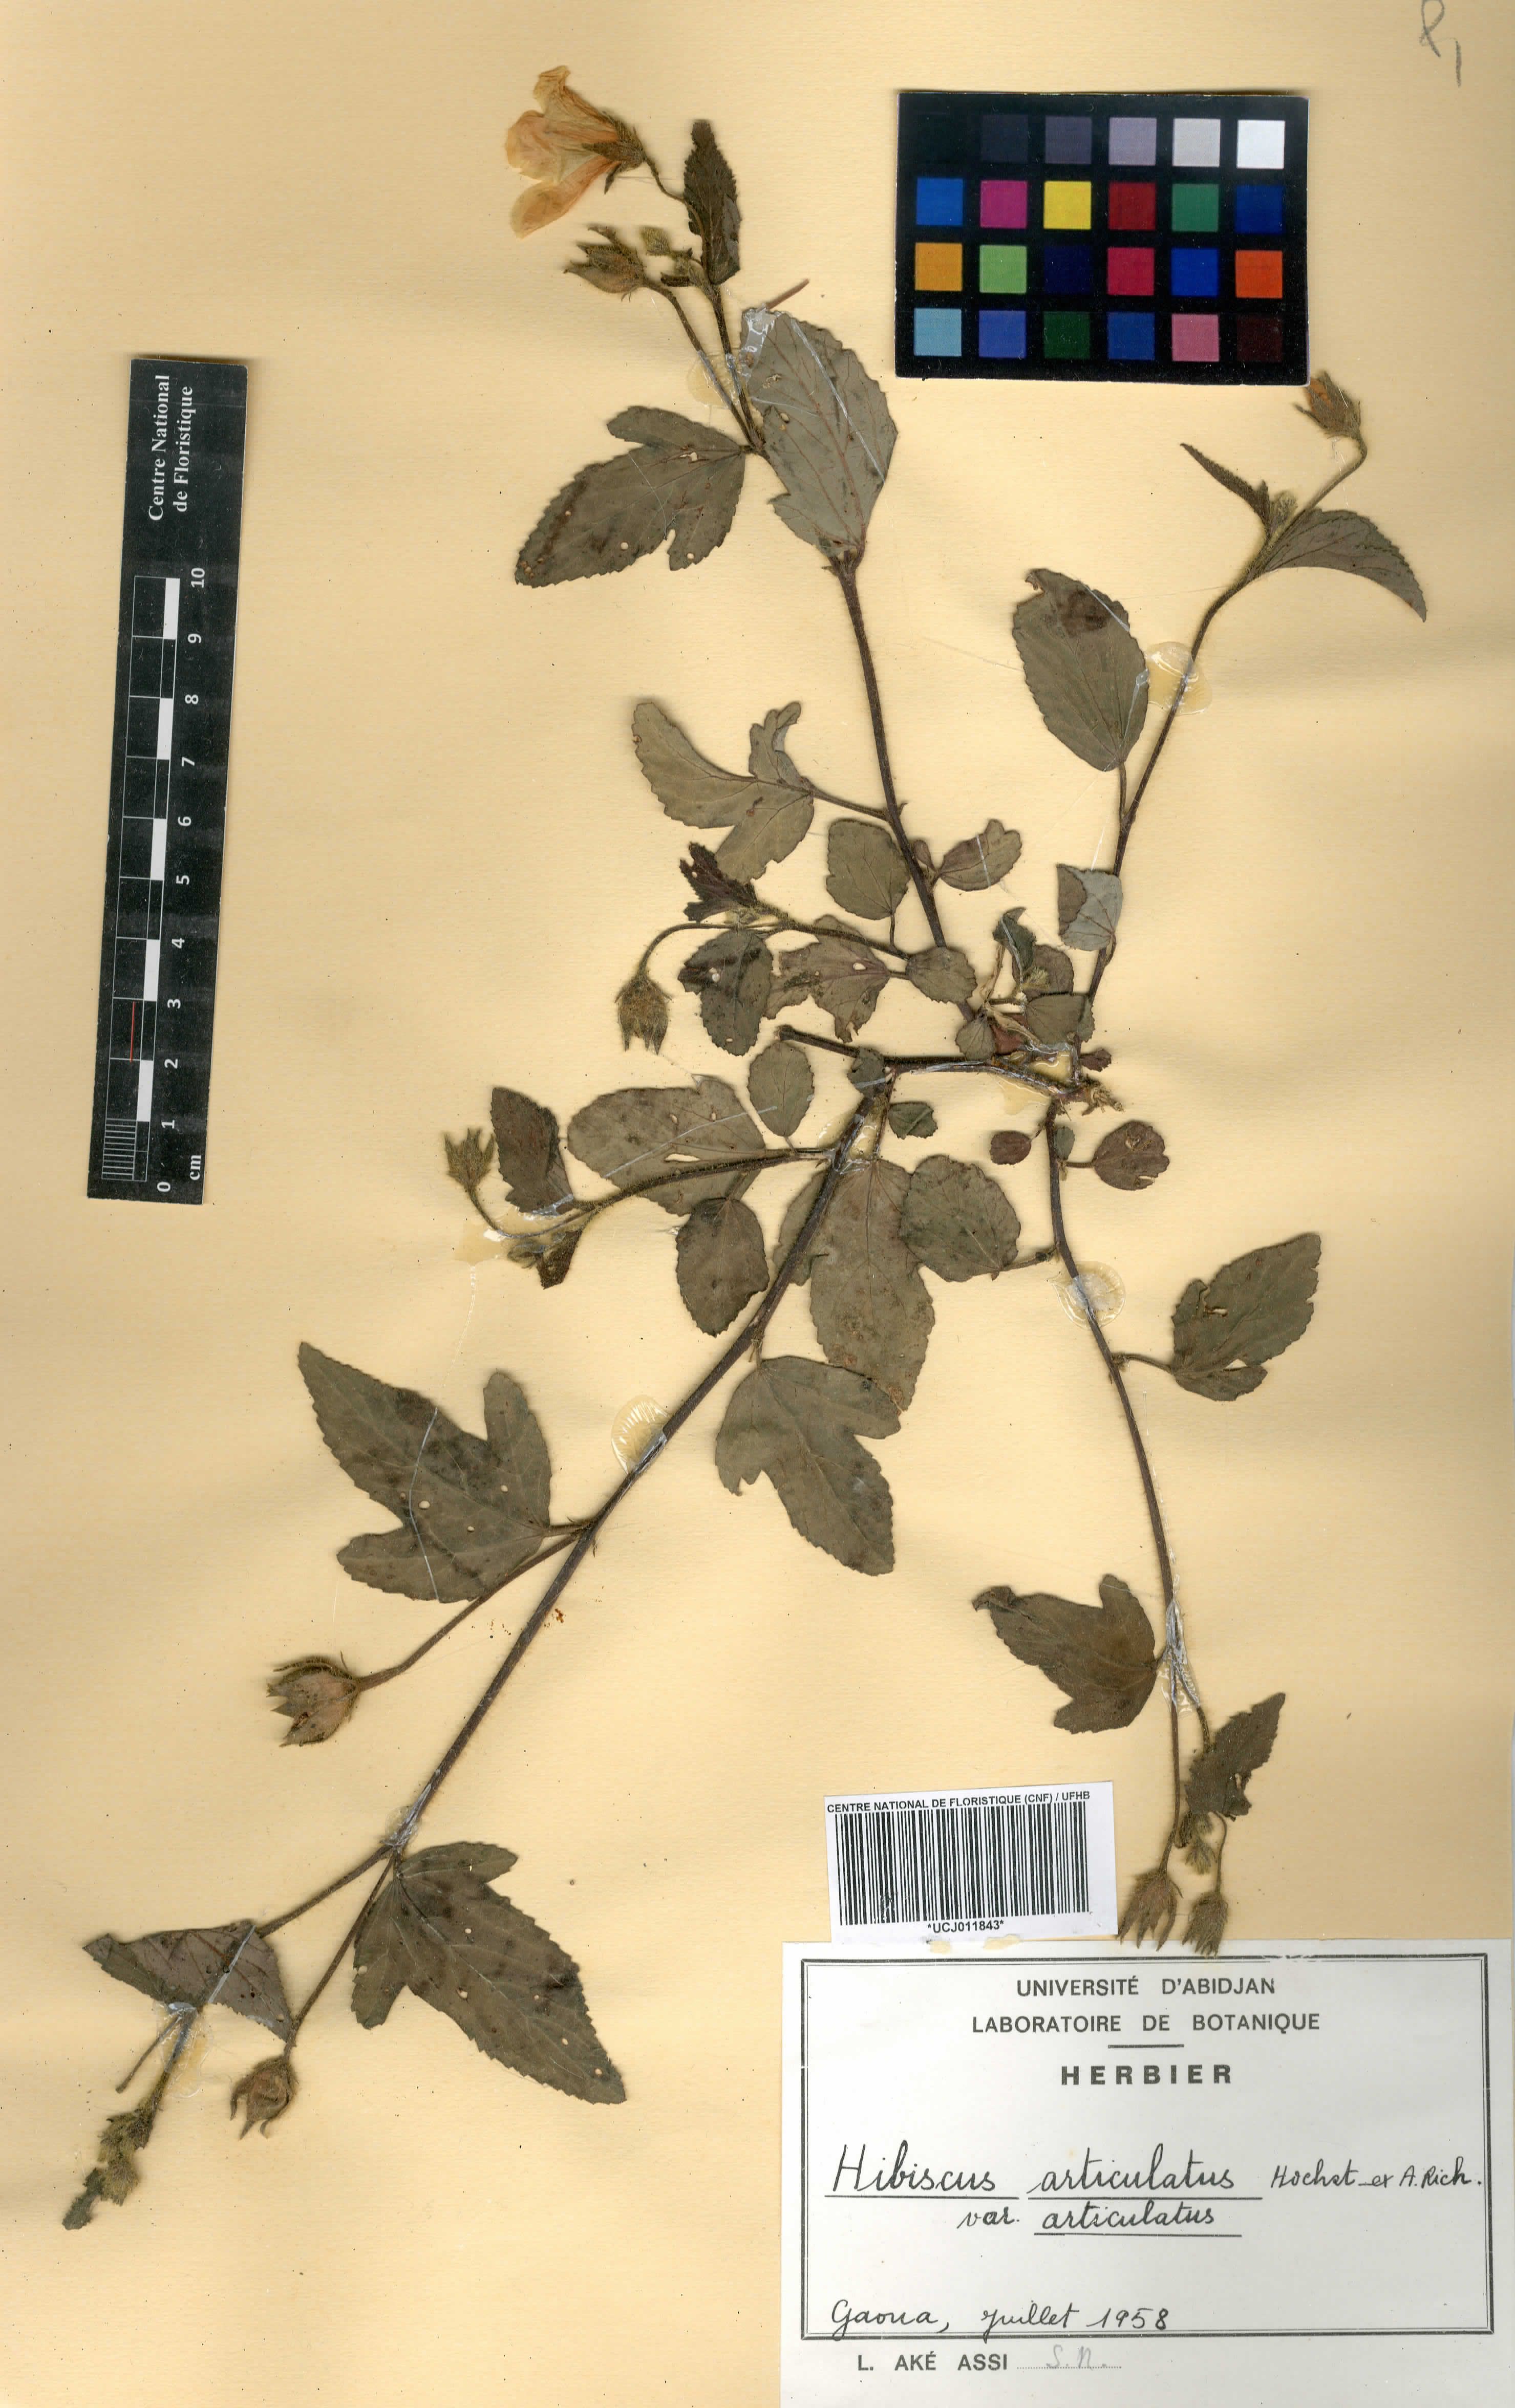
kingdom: Plantae
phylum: Tracheophyta
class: Magnoliopsida
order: Malvales
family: Malvaceae
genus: Hibiscus
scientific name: Hibiscus articulatus
